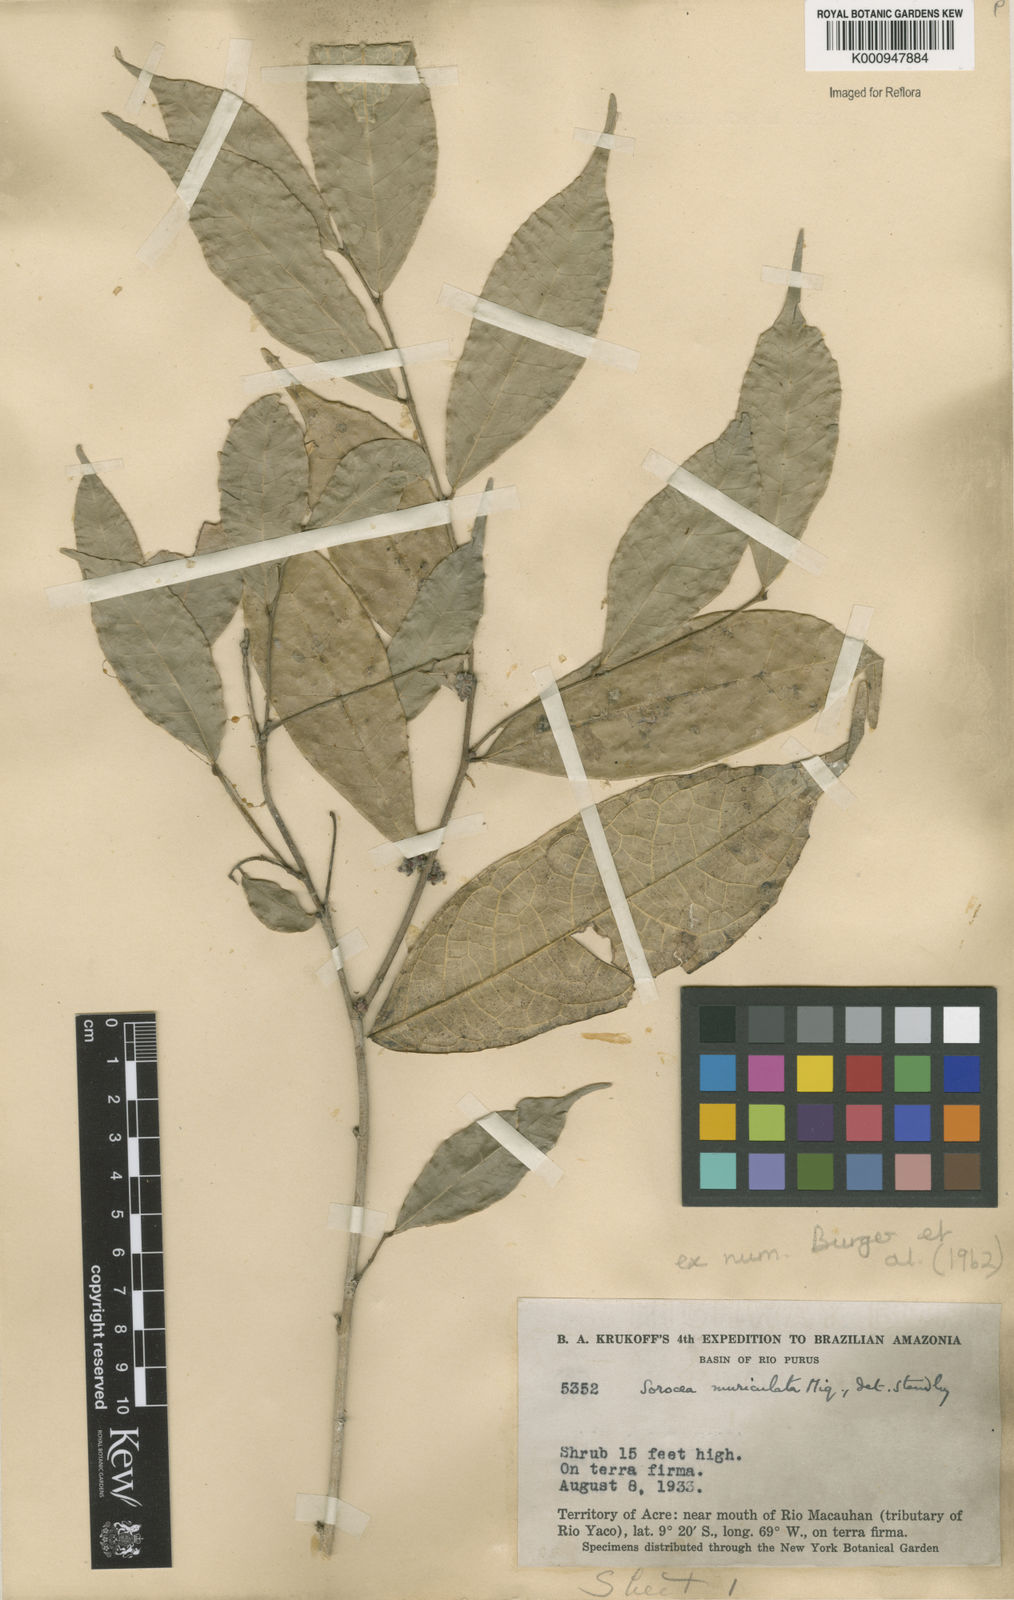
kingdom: Plantae
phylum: Tracheophyta
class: Magnoliopsida
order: Rosales
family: Moraceae
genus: Sorocea
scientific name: Sorocea muriculata
